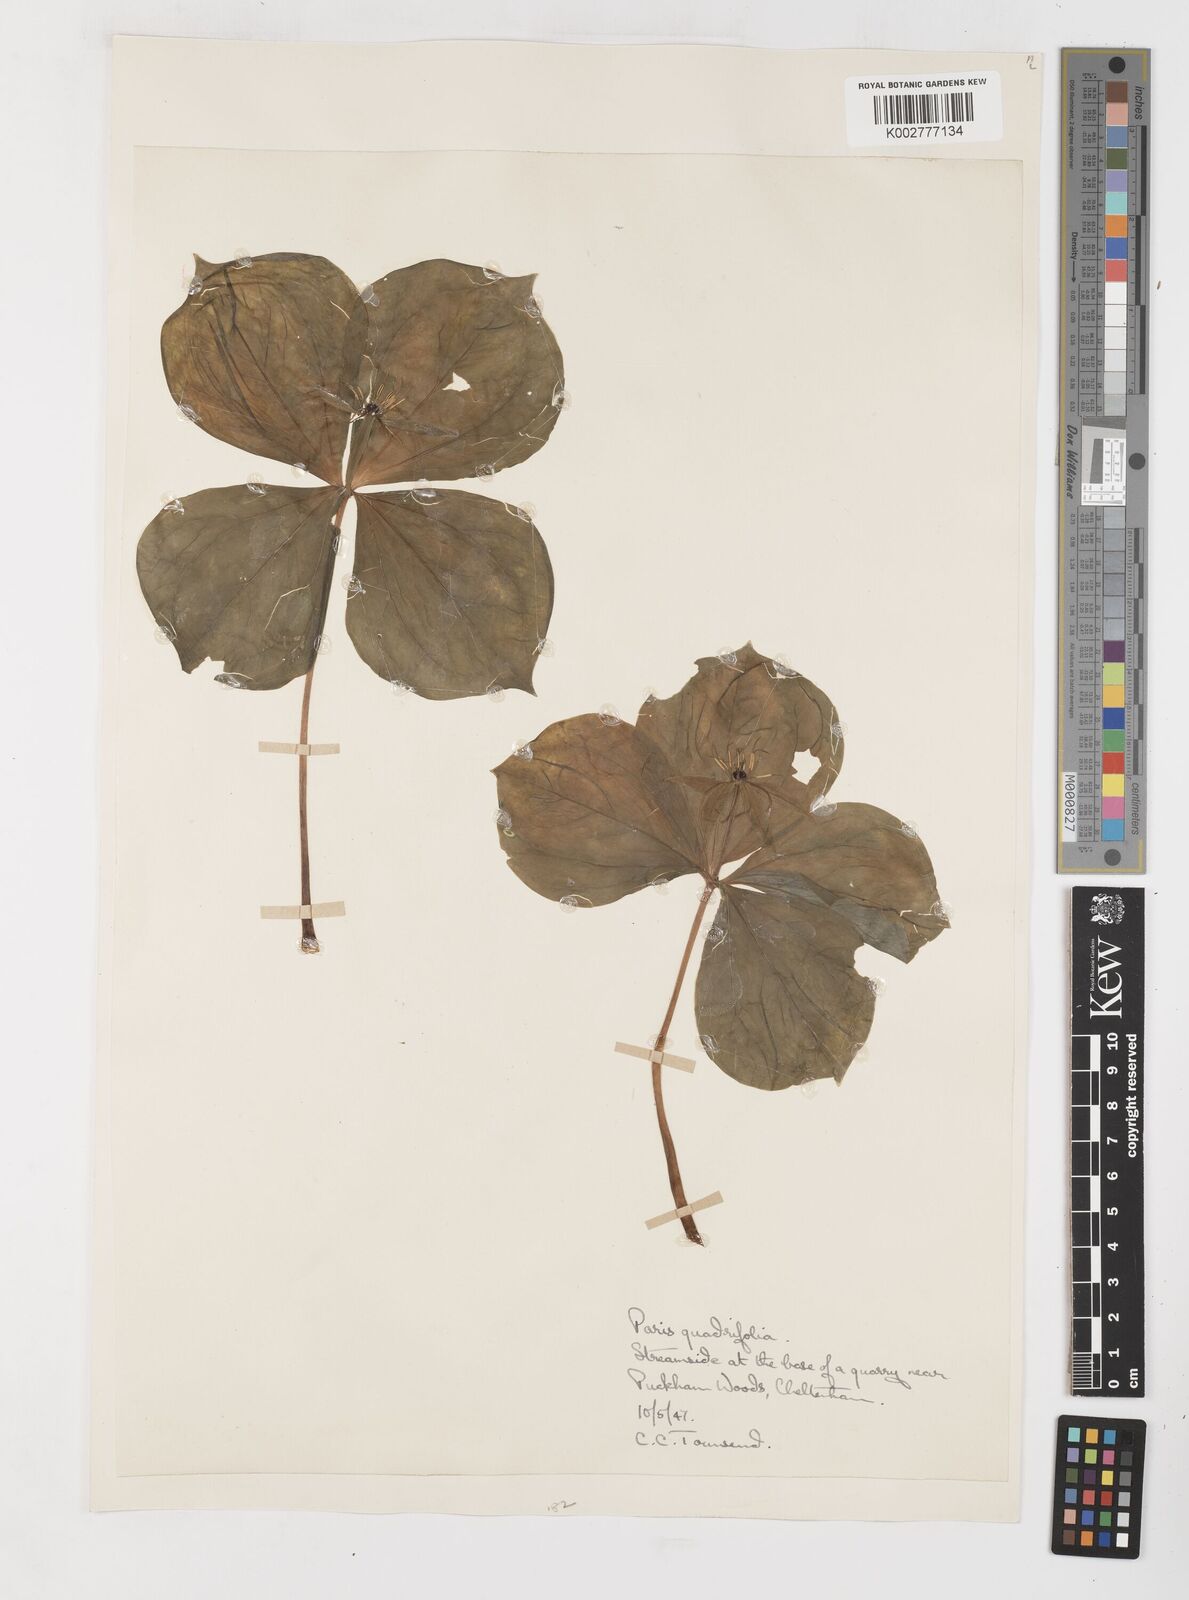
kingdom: Plantae
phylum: Tracheophyta
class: Liliopsida
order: Liliales
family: Melanthiaceae
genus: Paris
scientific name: Paris quadrifolia
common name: Herb-paris
